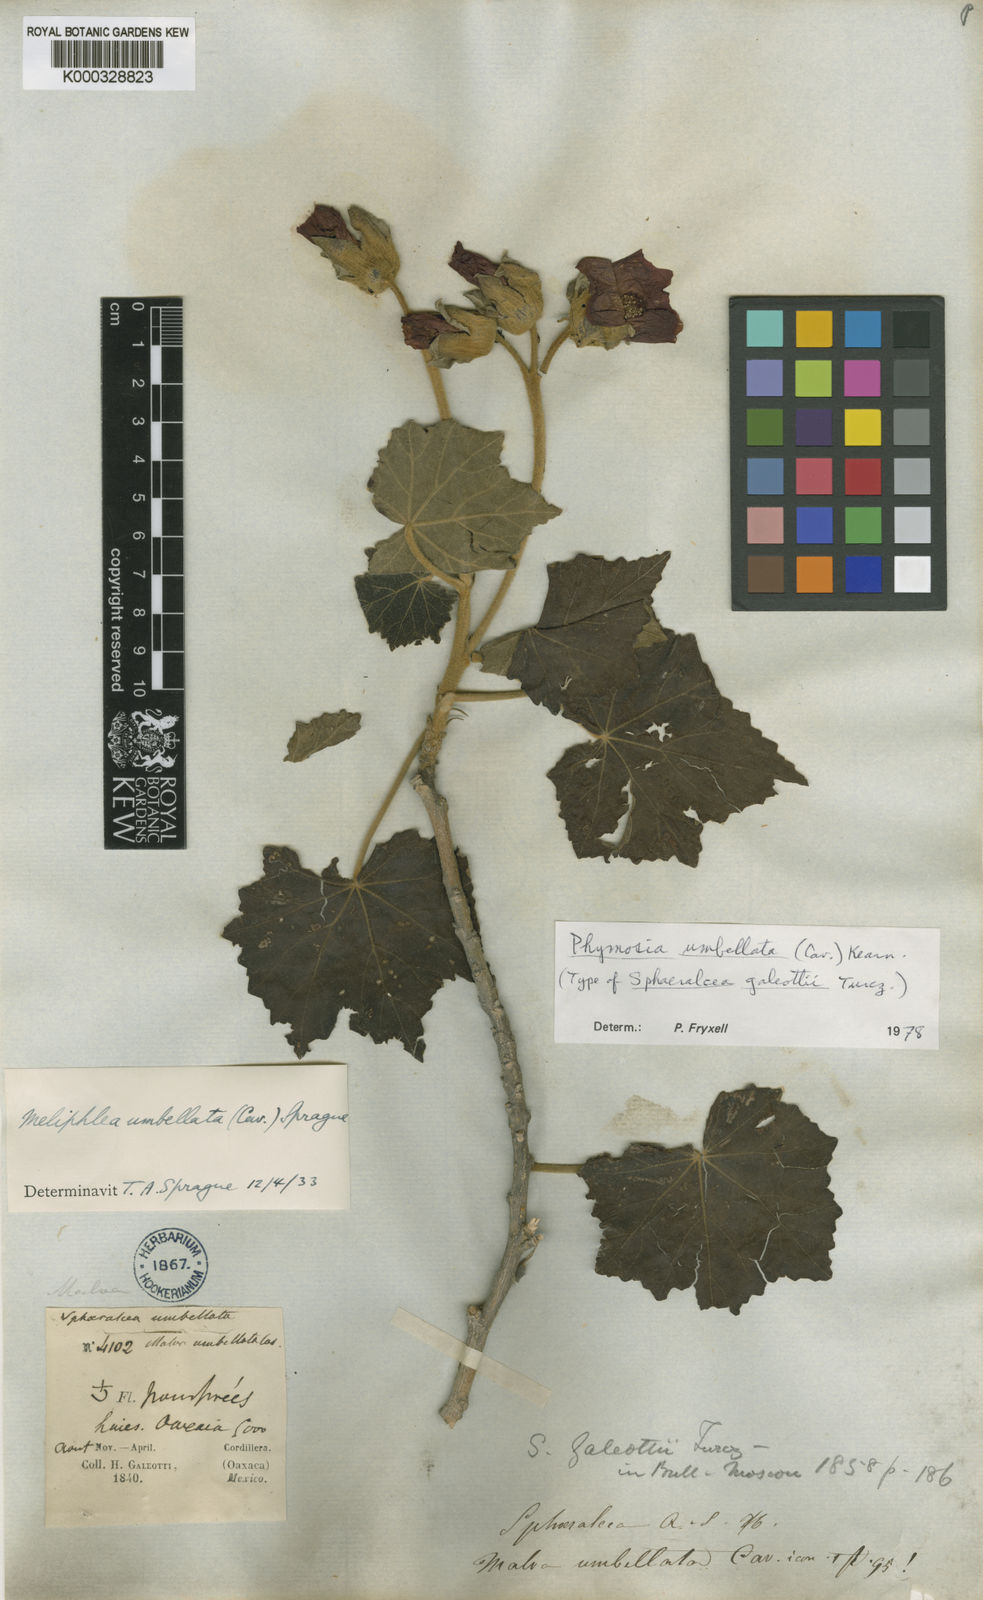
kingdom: Plantae
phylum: Tracheophyta
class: Magnoliopsida
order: Malvales
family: Malvaceae
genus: Phymosia
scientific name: Phymosia umbellata
